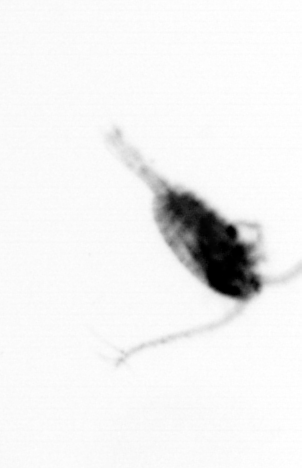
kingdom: Animalia
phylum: Arthropoda
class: Copepoda
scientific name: Copepoda
